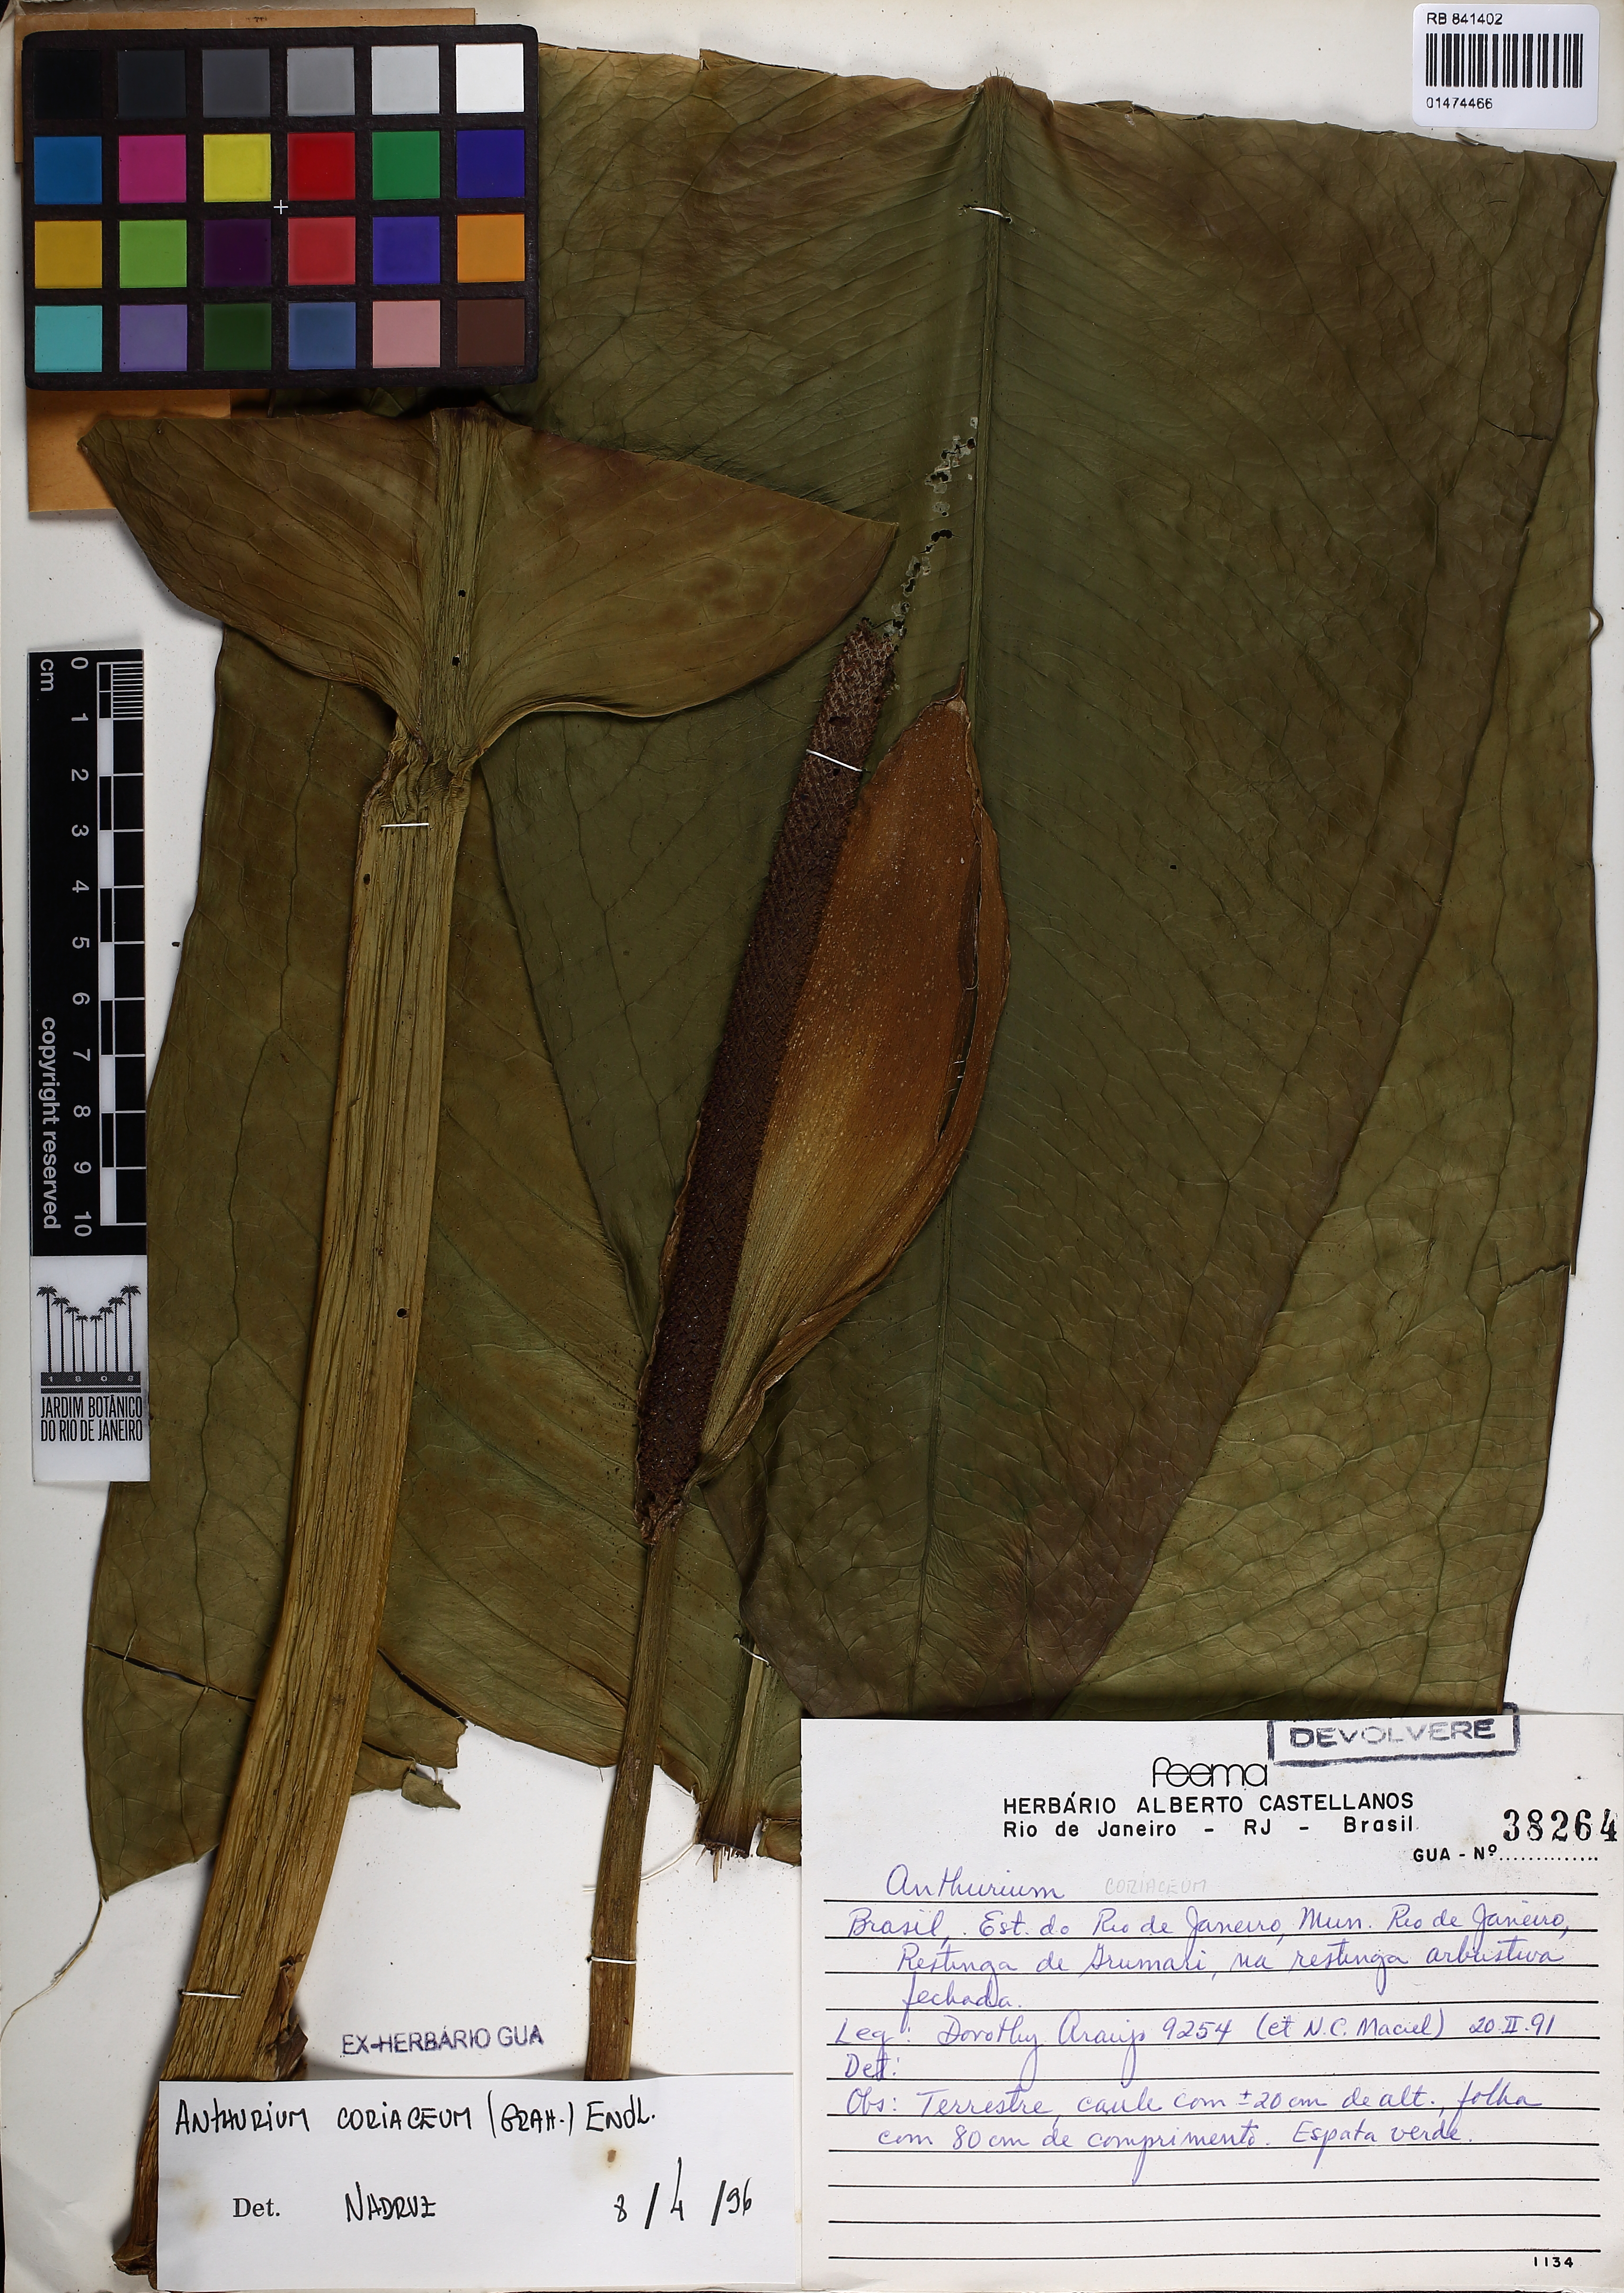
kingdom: Plantae
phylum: Tracheophyta
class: Liliopsida
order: Alismatales
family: Araceae
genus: Anthurium
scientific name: Anthurium coriaceum
